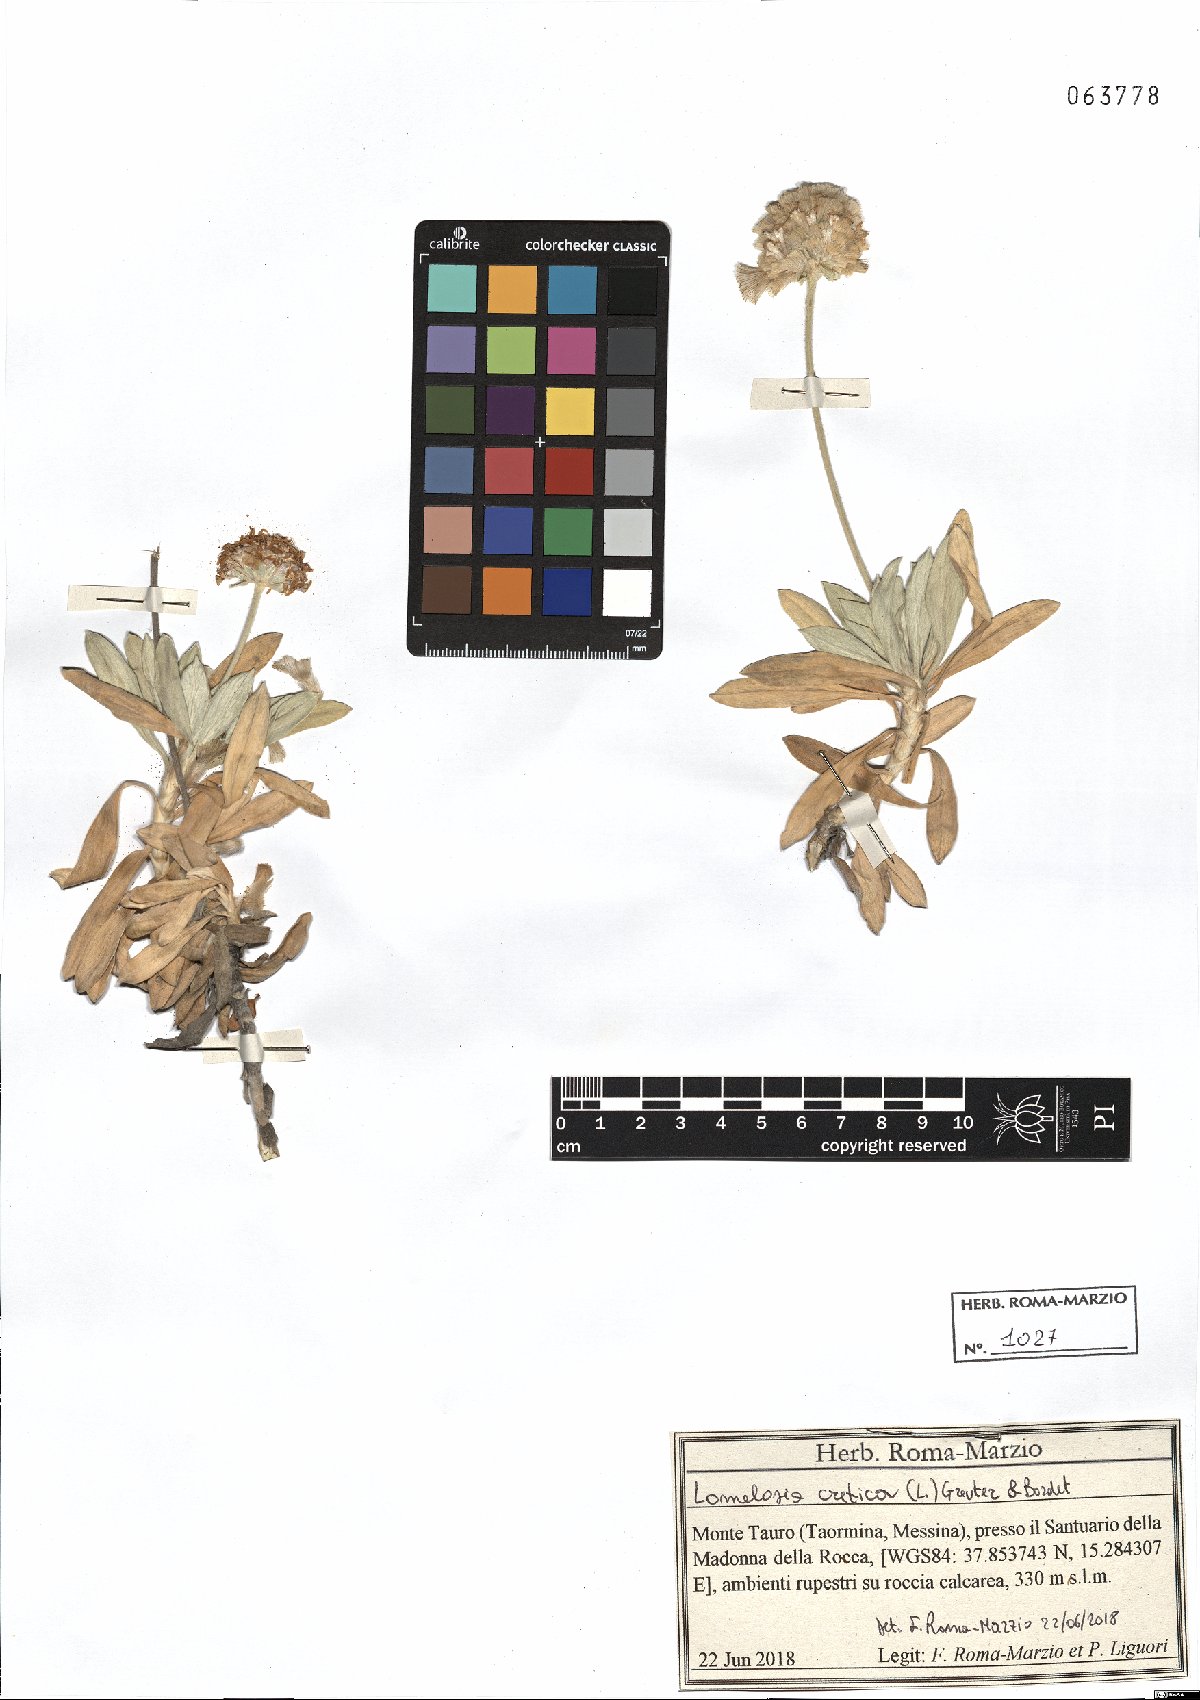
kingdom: Plantae
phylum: Tracheophyta
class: Magnoliopsida
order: Dipsacales
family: Caprifoliaceae
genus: Lomelosia
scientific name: Lomelosia cretica
